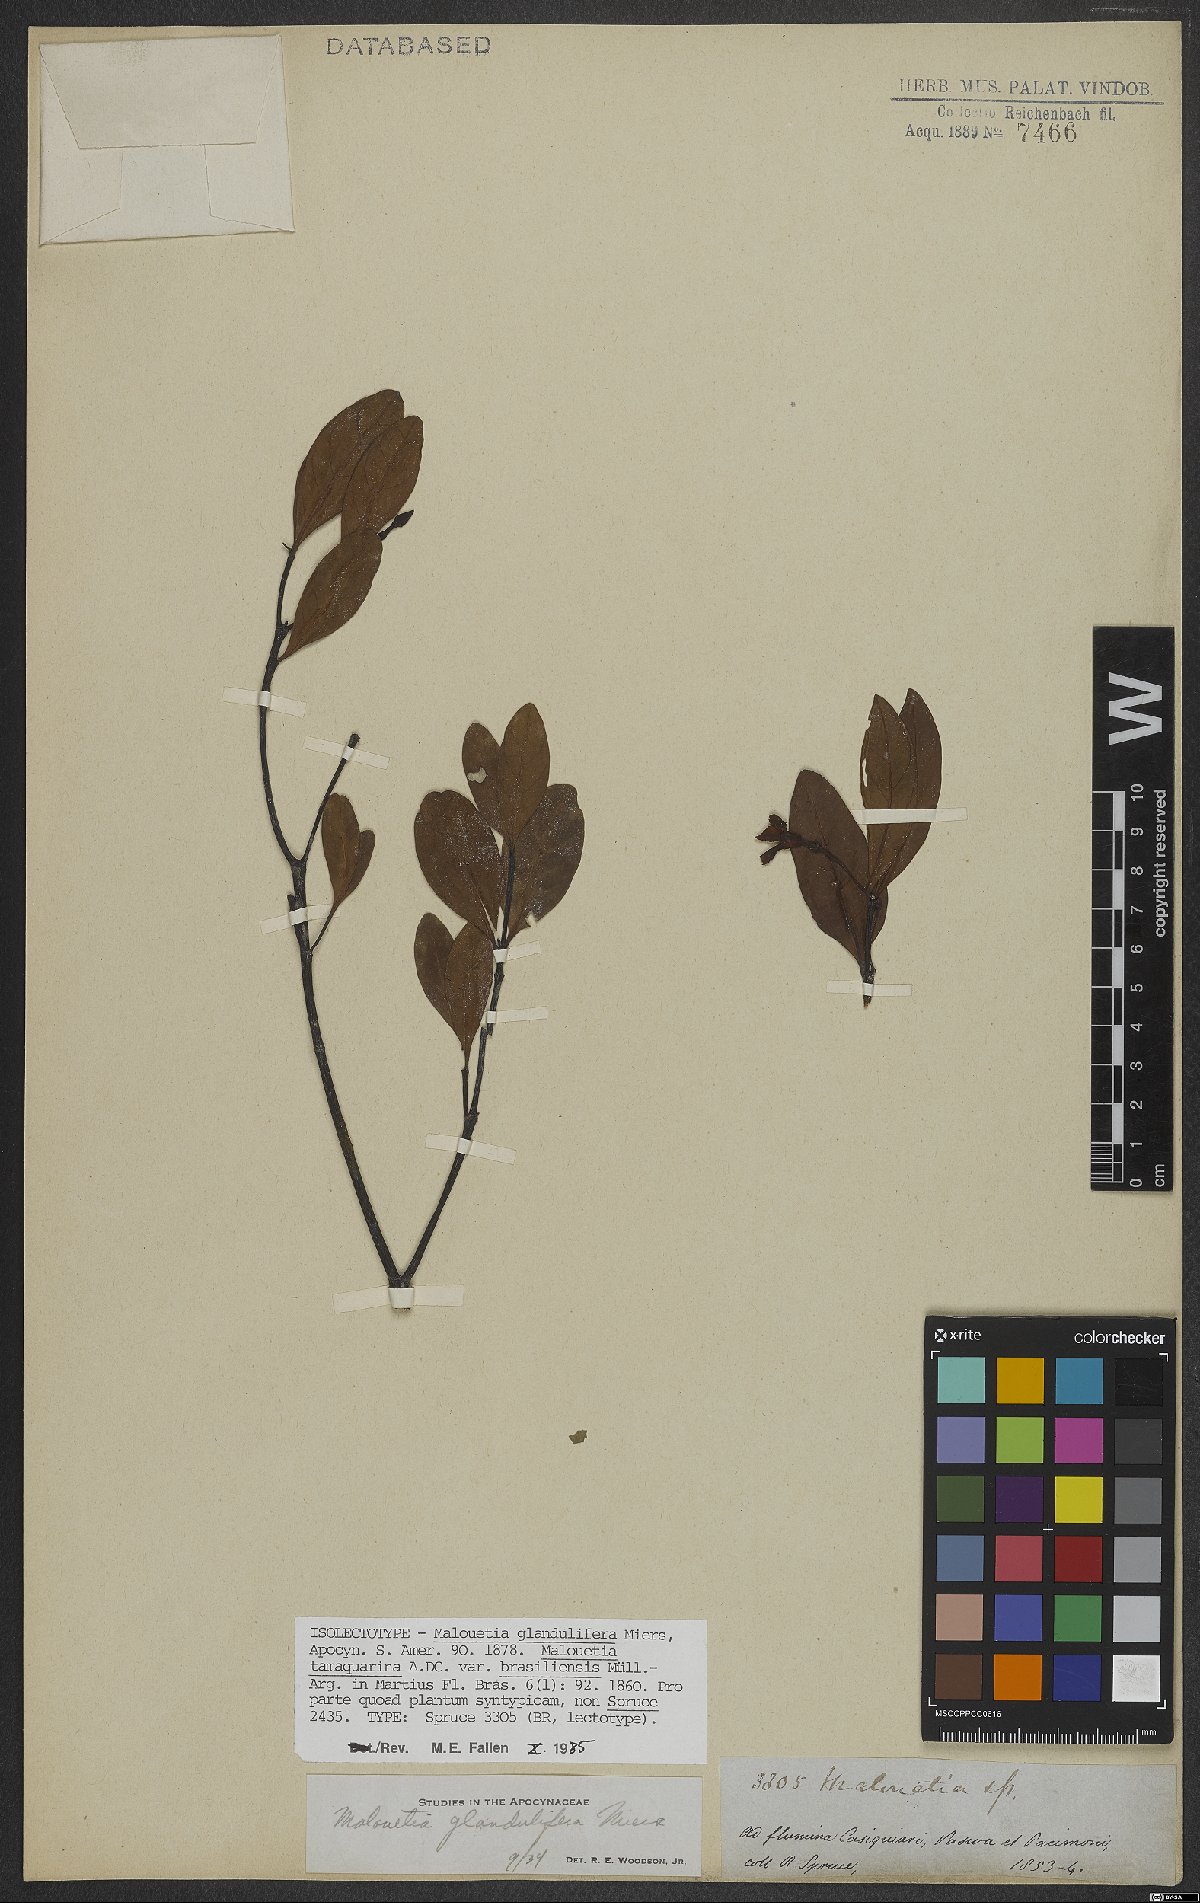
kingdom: Plantae
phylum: Tracheophyta
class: Magnoliopsida
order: Gentianales
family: Apocynaceae
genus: Malouetia
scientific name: Malouetia glandulifera
